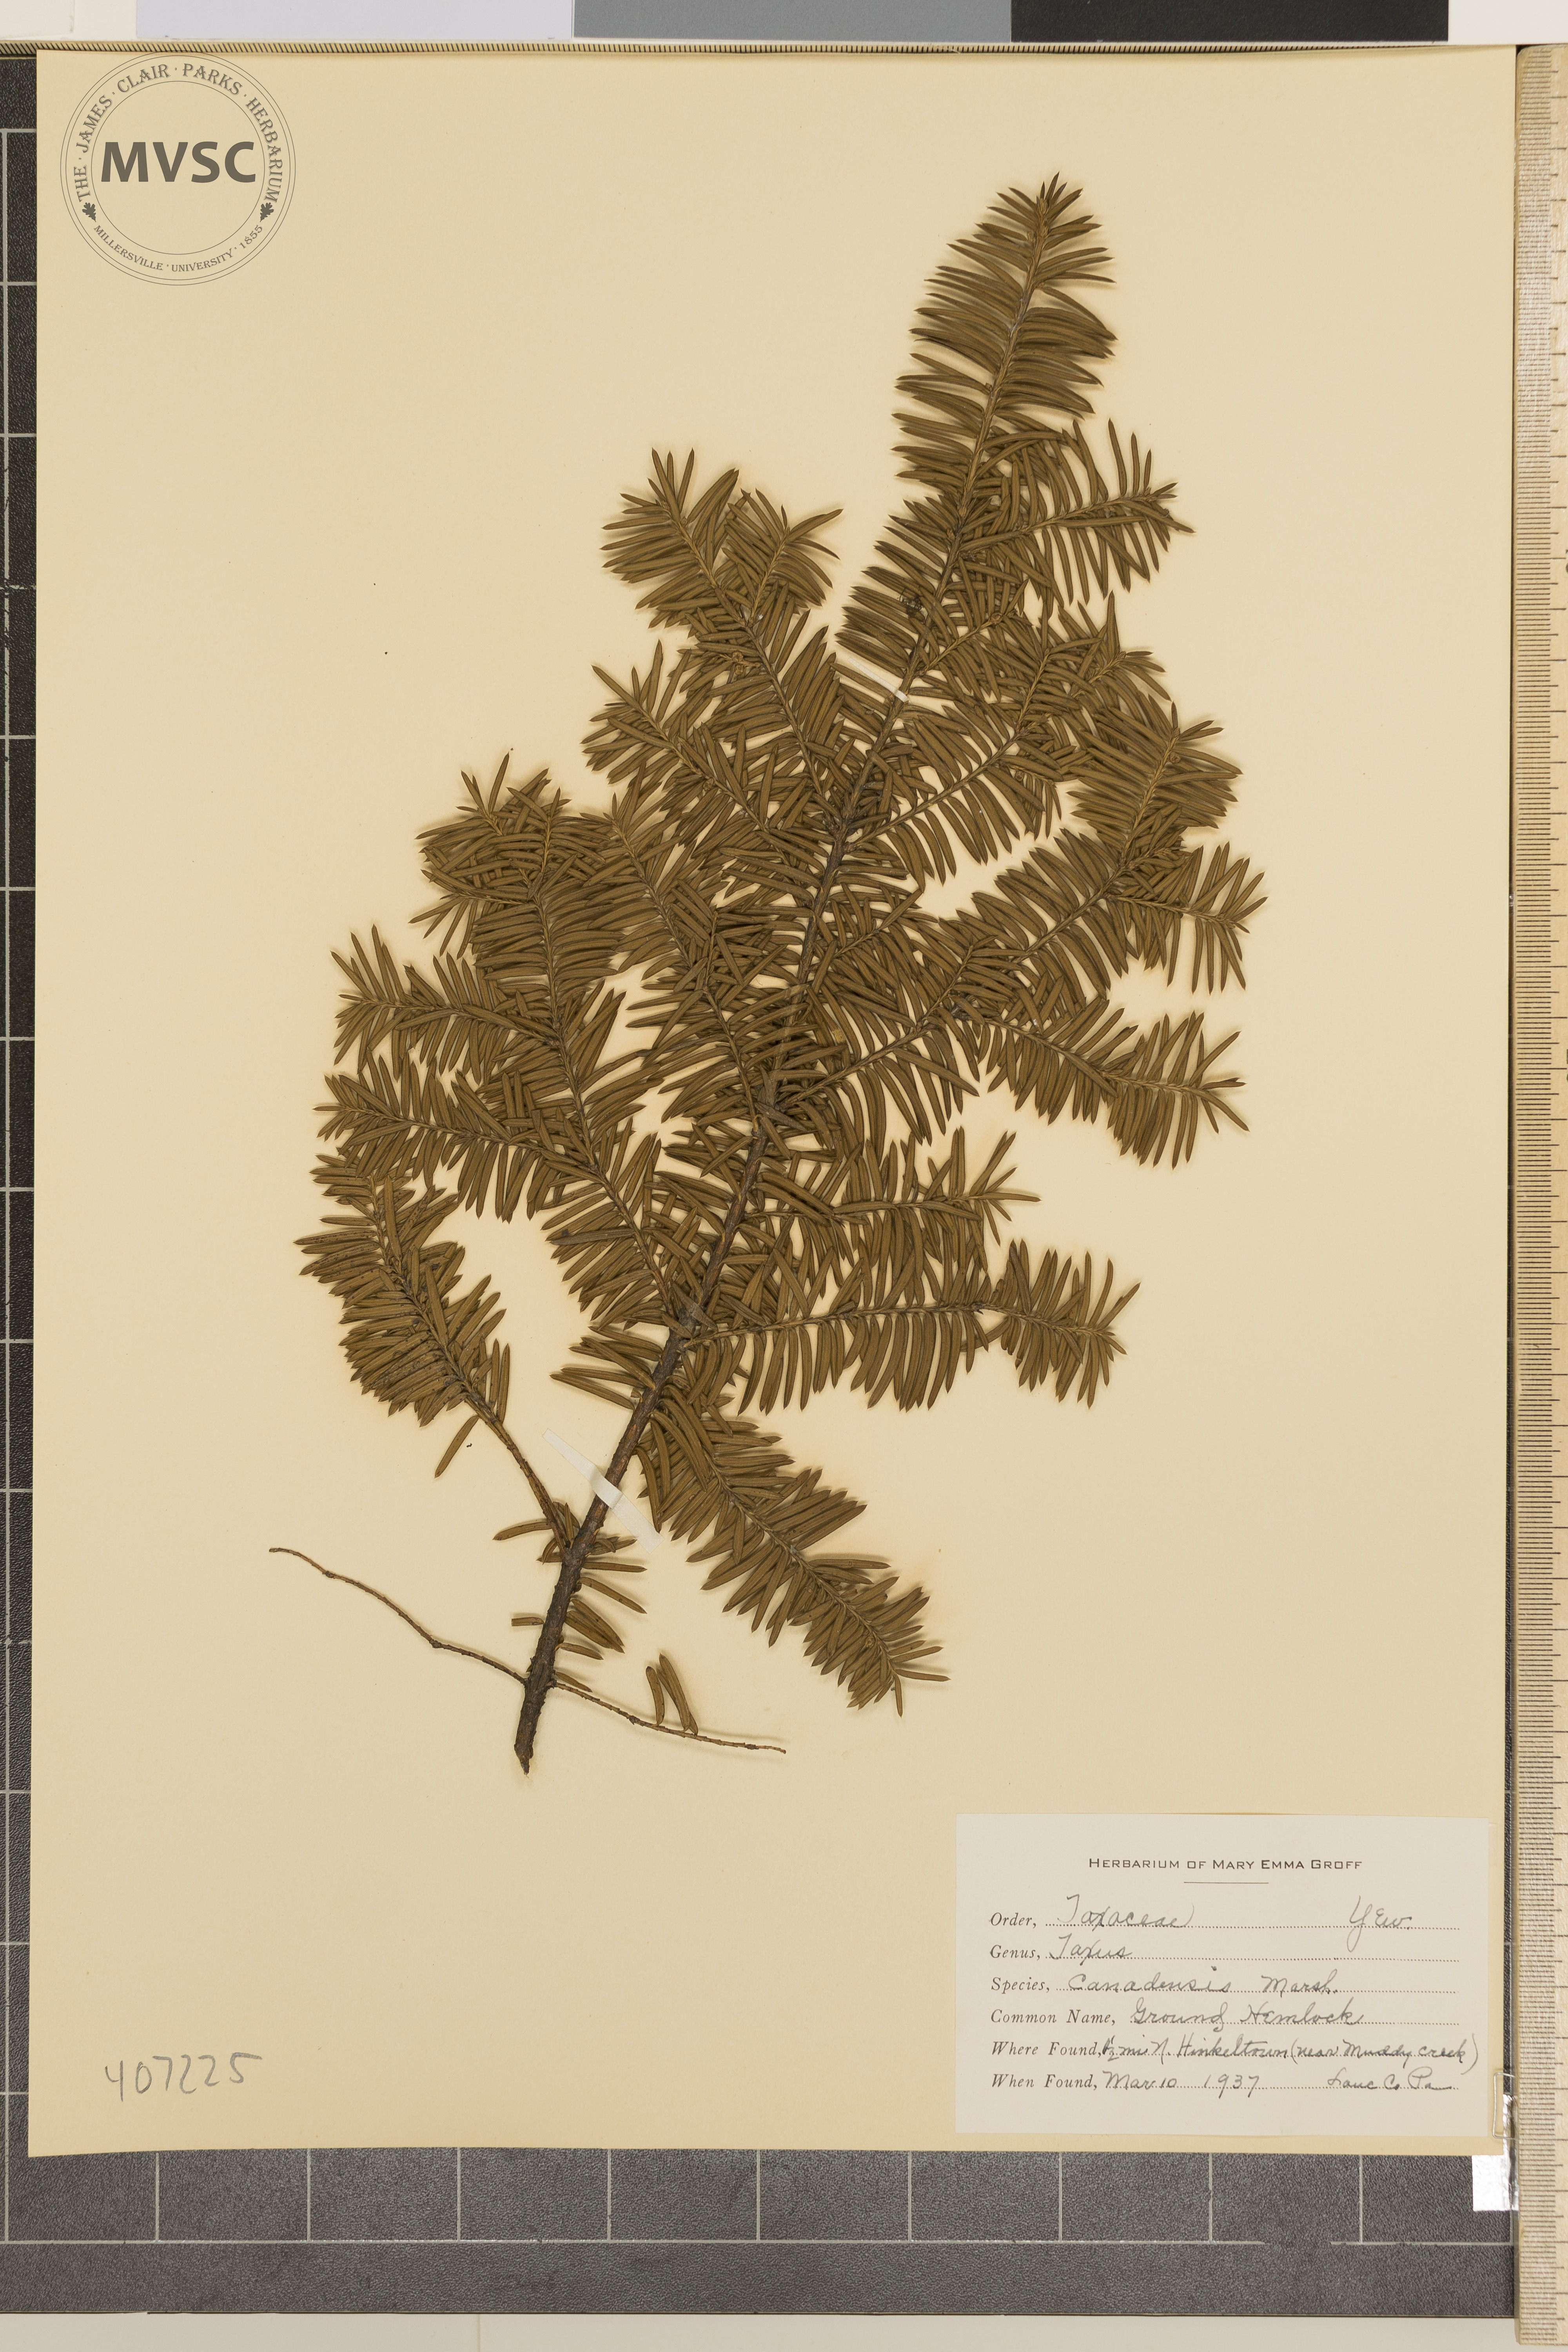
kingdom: Plantae
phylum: Tracheophyta
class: Pinopsida
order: Pinales
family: Taxaceae
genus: Taxus
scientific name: Taxus canadensis
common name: American yew
